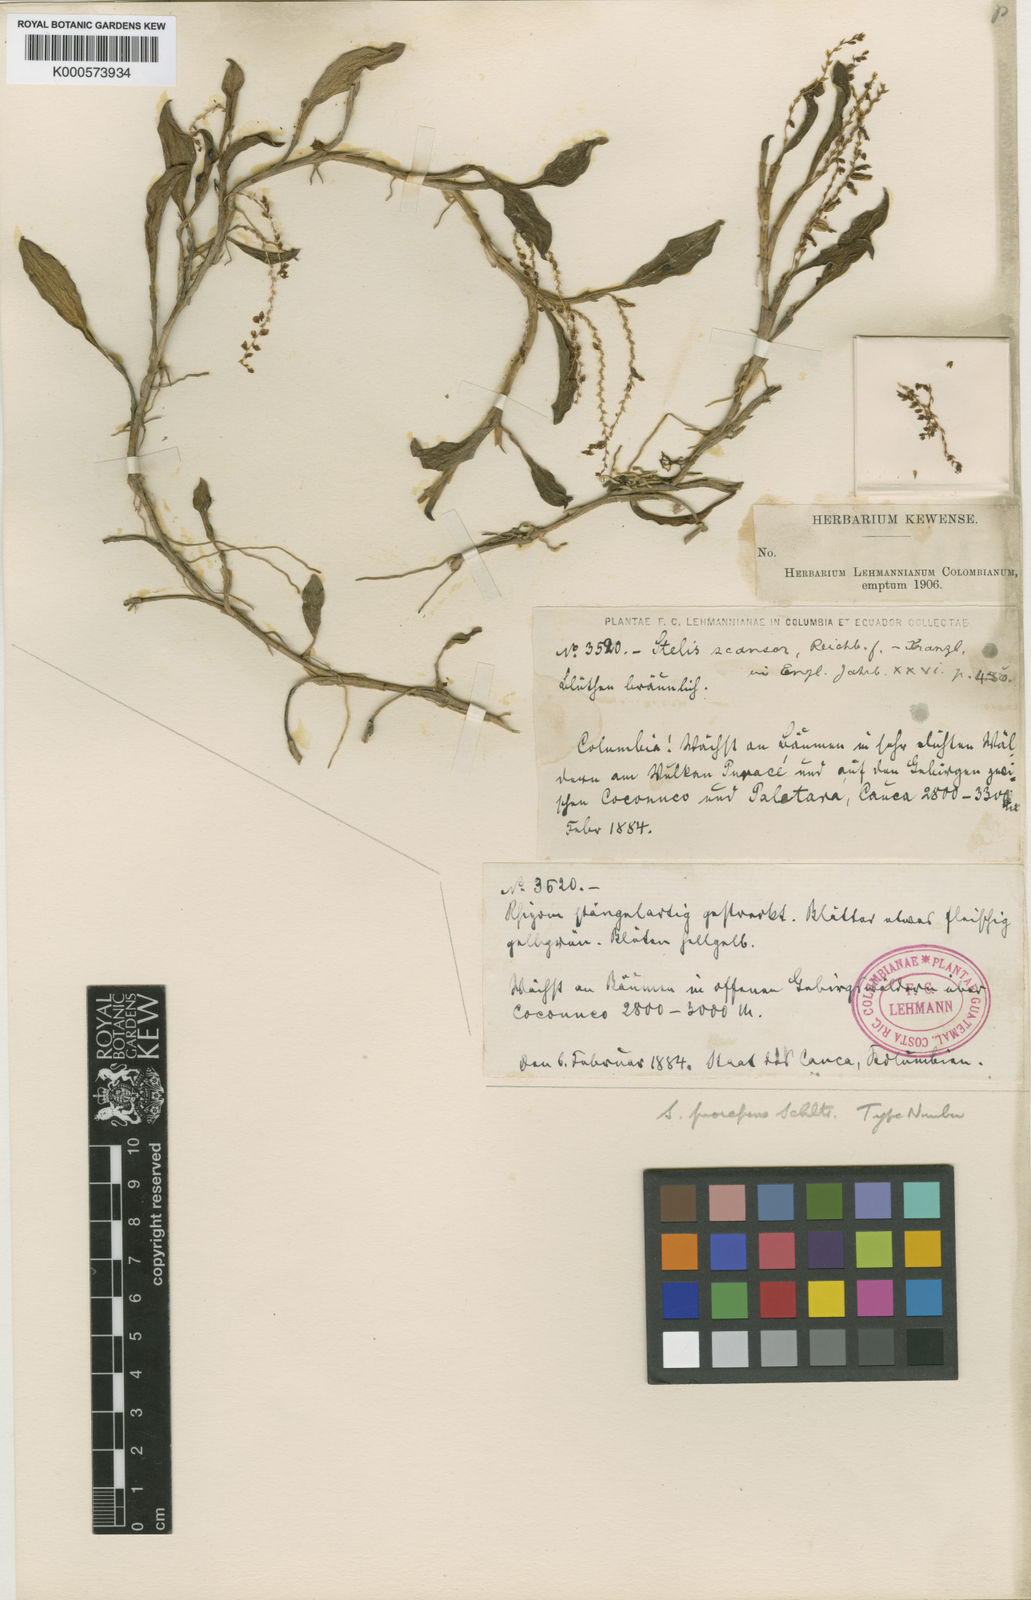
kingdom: Plantae
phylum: Tracheophyta
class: Liliopsida
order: Asparagales
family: Orchidaceae
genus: Stelis
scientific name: Stelis scansor
